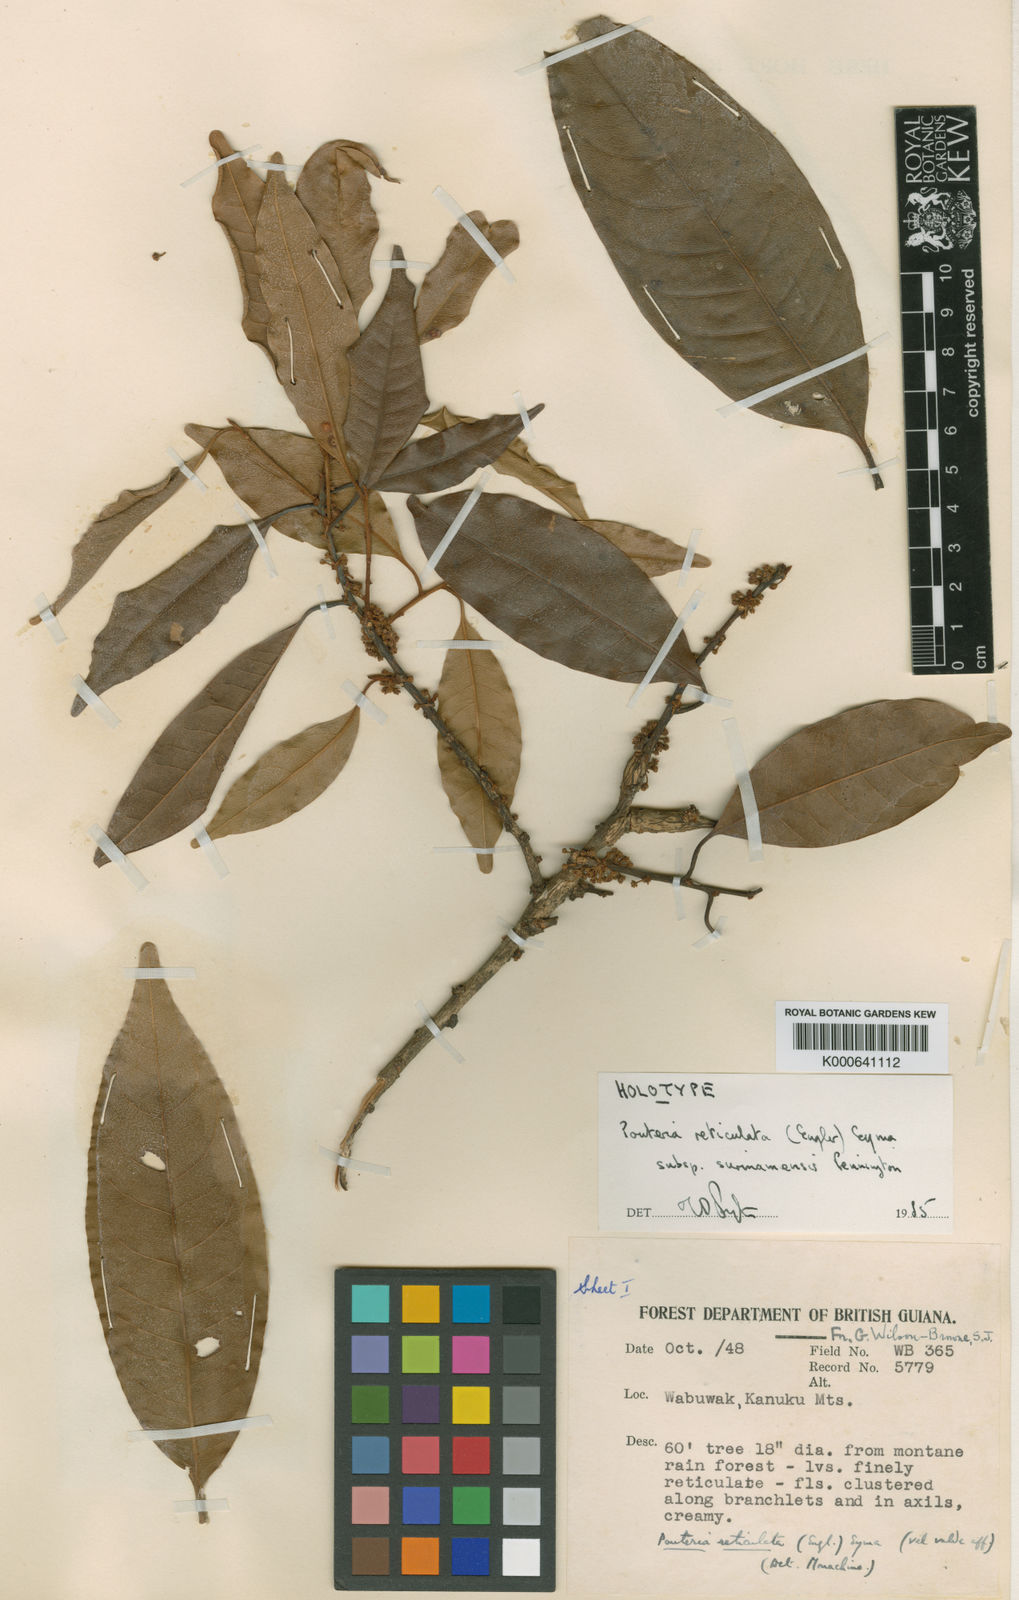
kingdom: Plantae
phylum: Tracheophyta
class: Magnoliopsida
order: Ericales
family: Sapotaceae
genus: Pouteria
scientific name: Pouteria reticulata
